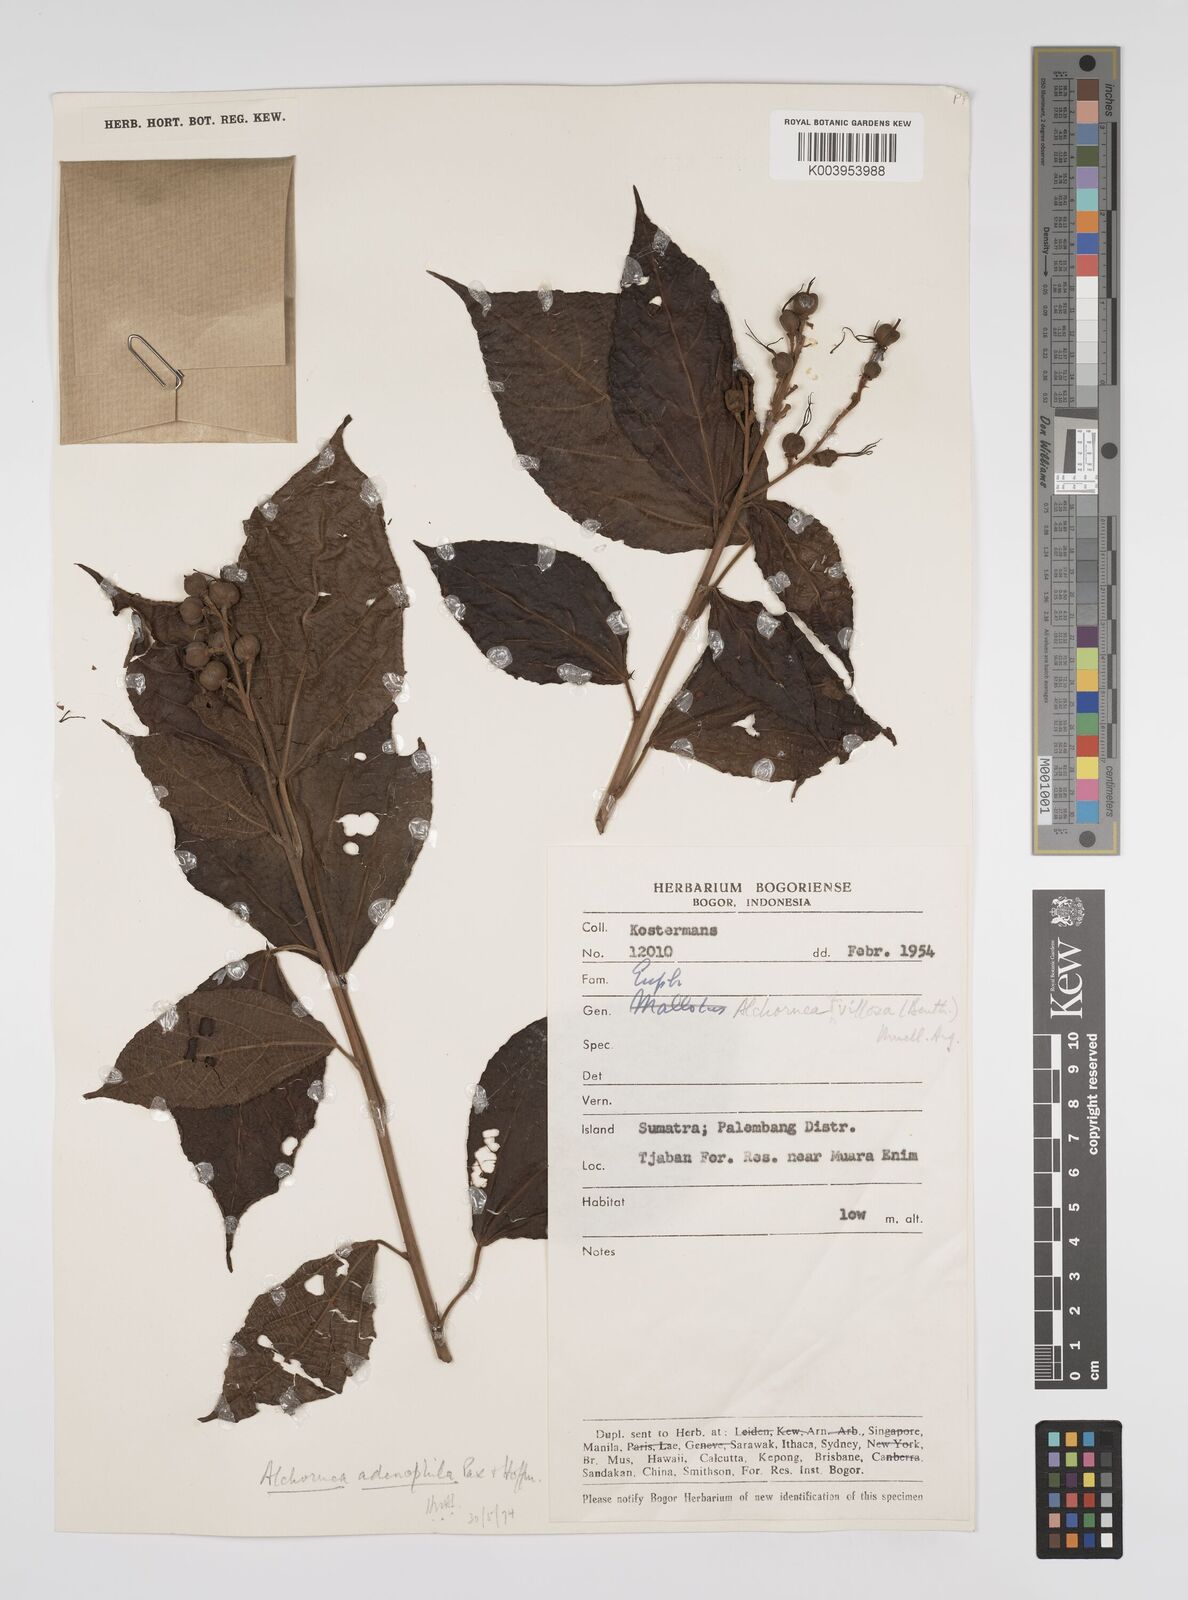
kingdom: Plantae
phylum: Tracheophyta
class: Magnoliopsida
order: Malpighiales
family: Euphorbiaceae
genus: Alchornea
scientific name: Alchornea parviflora
